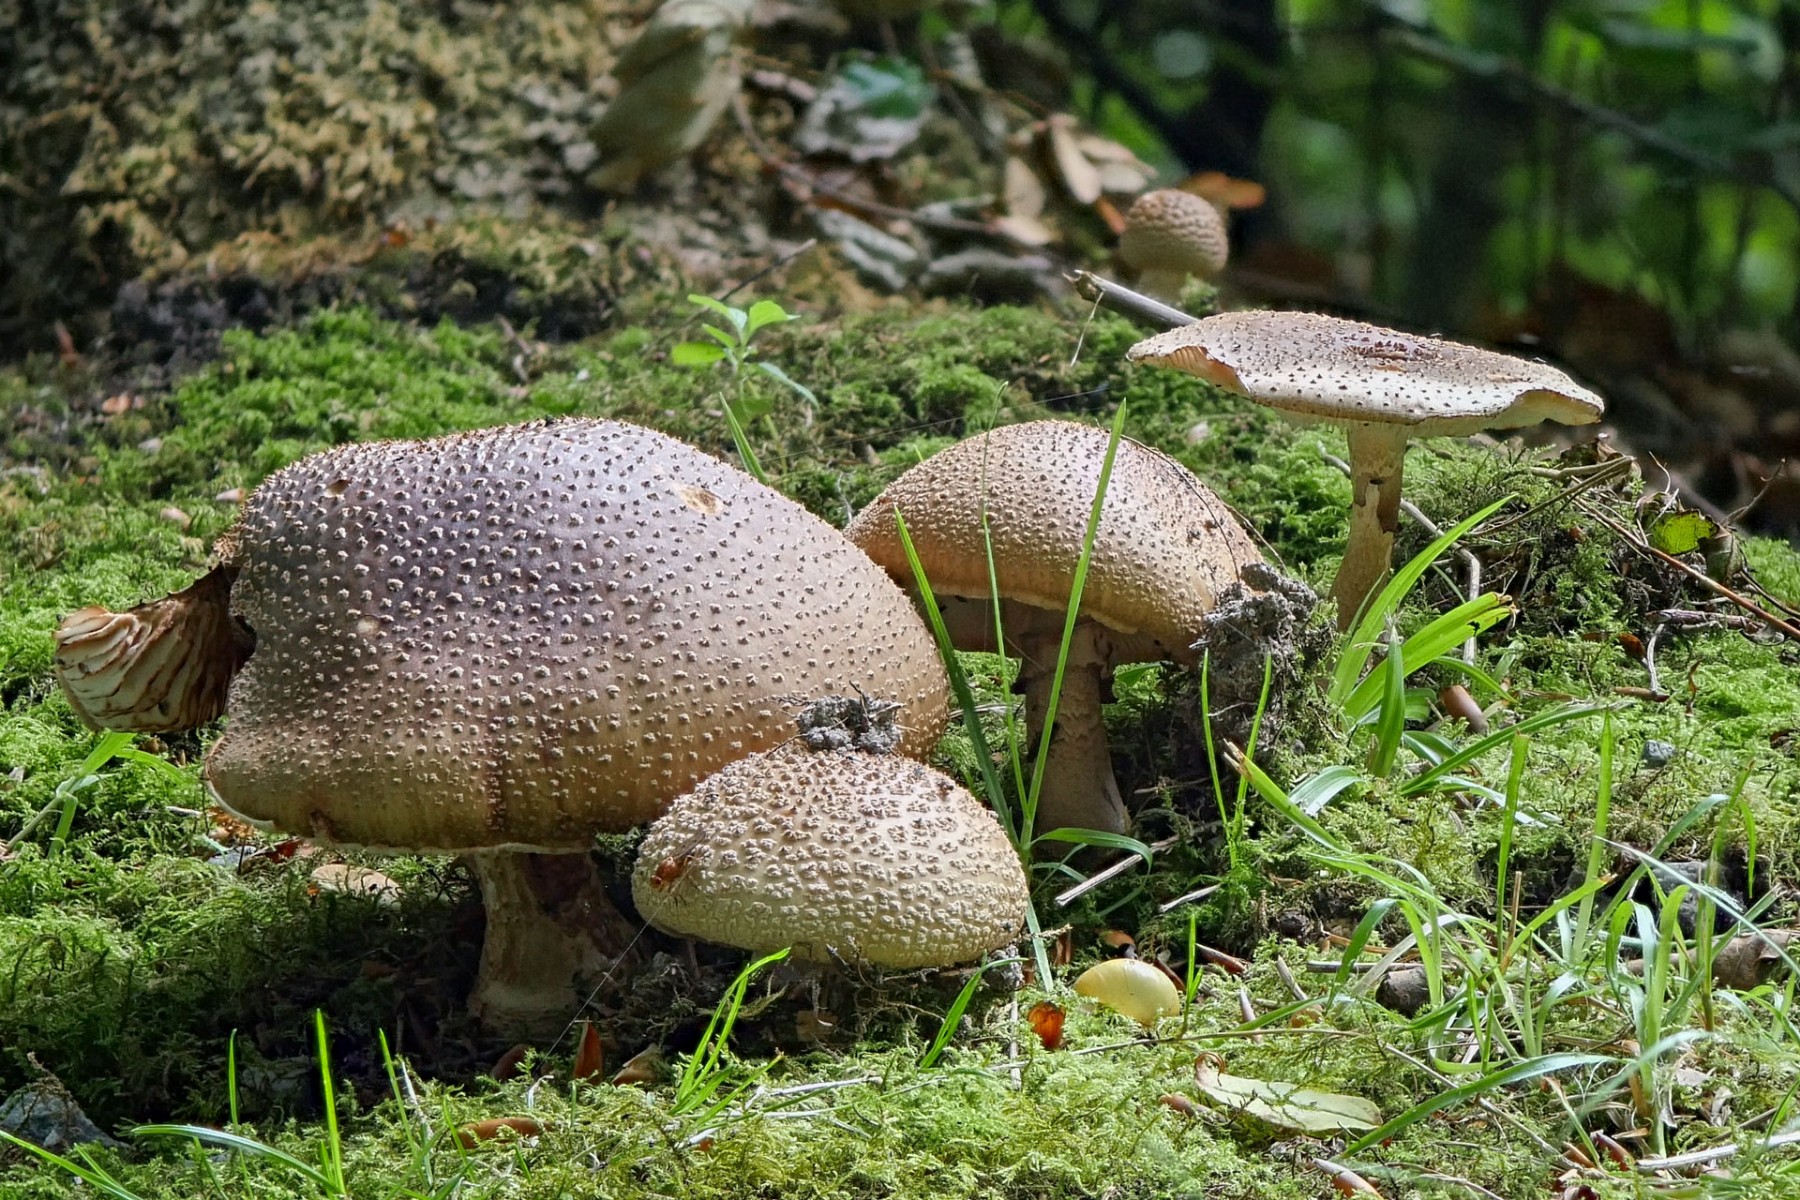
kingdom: Fungi
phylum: Basidiomycota
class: Agaricomycetes
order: Agaricales
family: Amanitaceae
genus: Amanita
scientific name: Amanita rubescens
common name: rødmende fluesvamp
